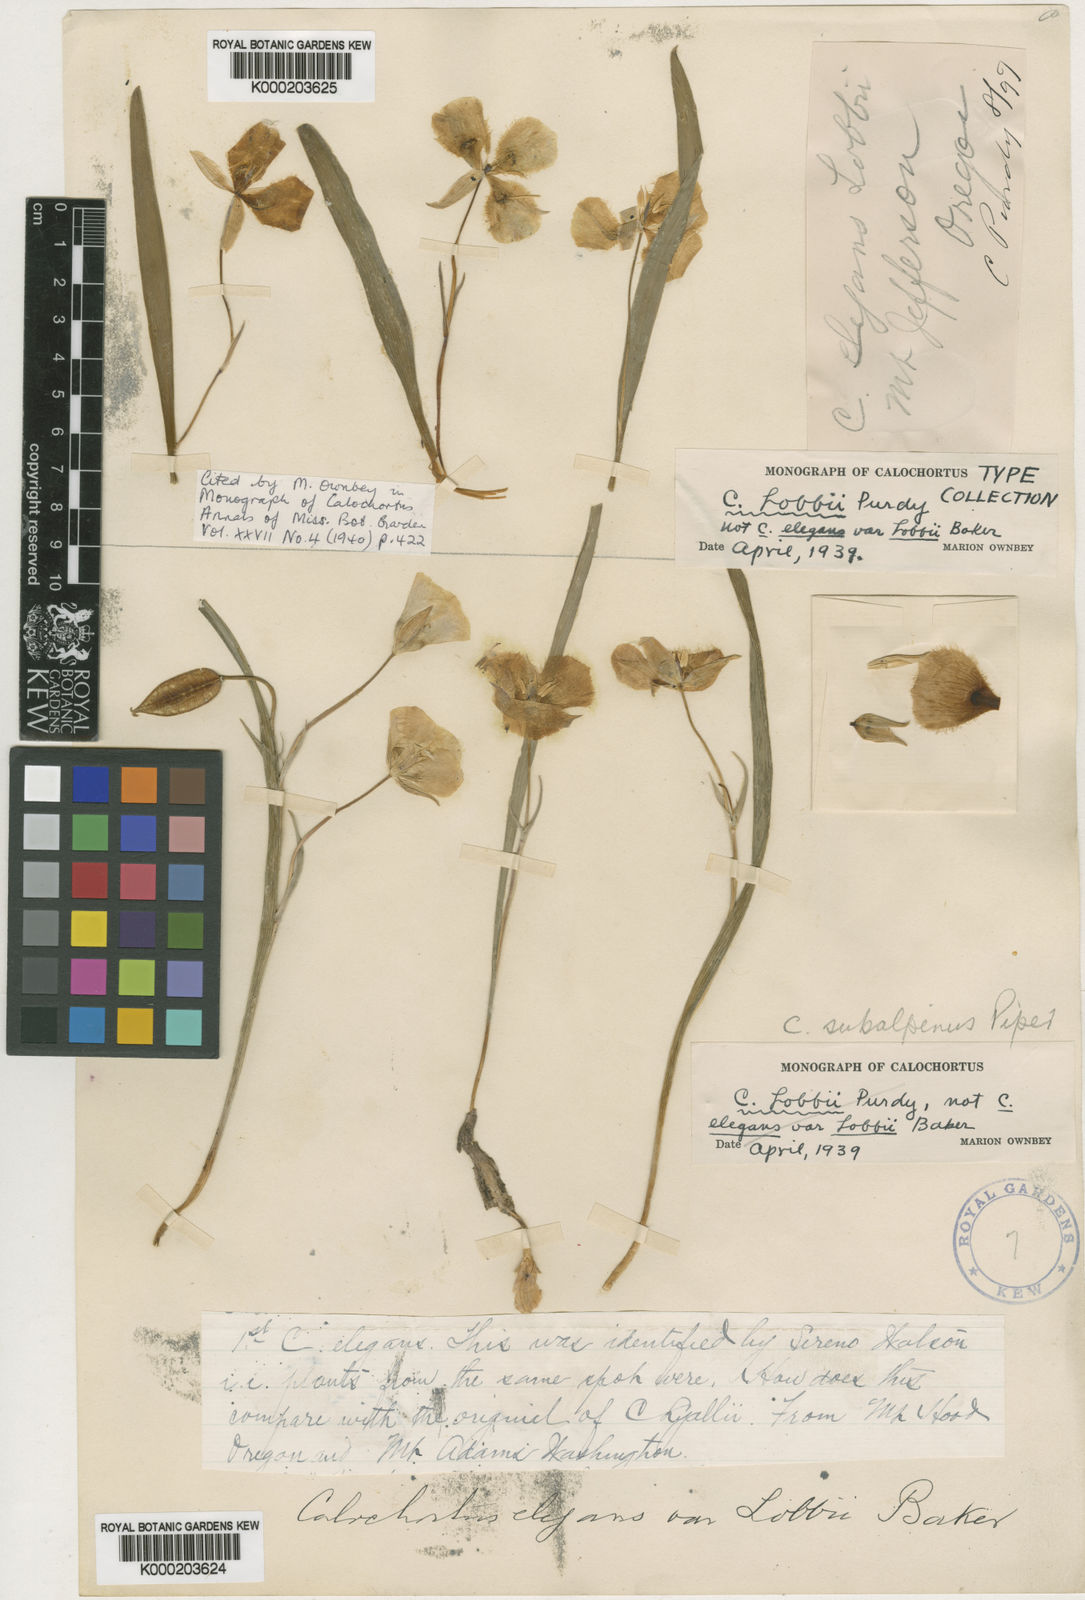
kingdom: Plantae
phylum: Tracheophyta
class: Liliopsida
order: Liliales
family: Liliaceae
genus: Calochortus
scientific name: Calochortus subalpinus
